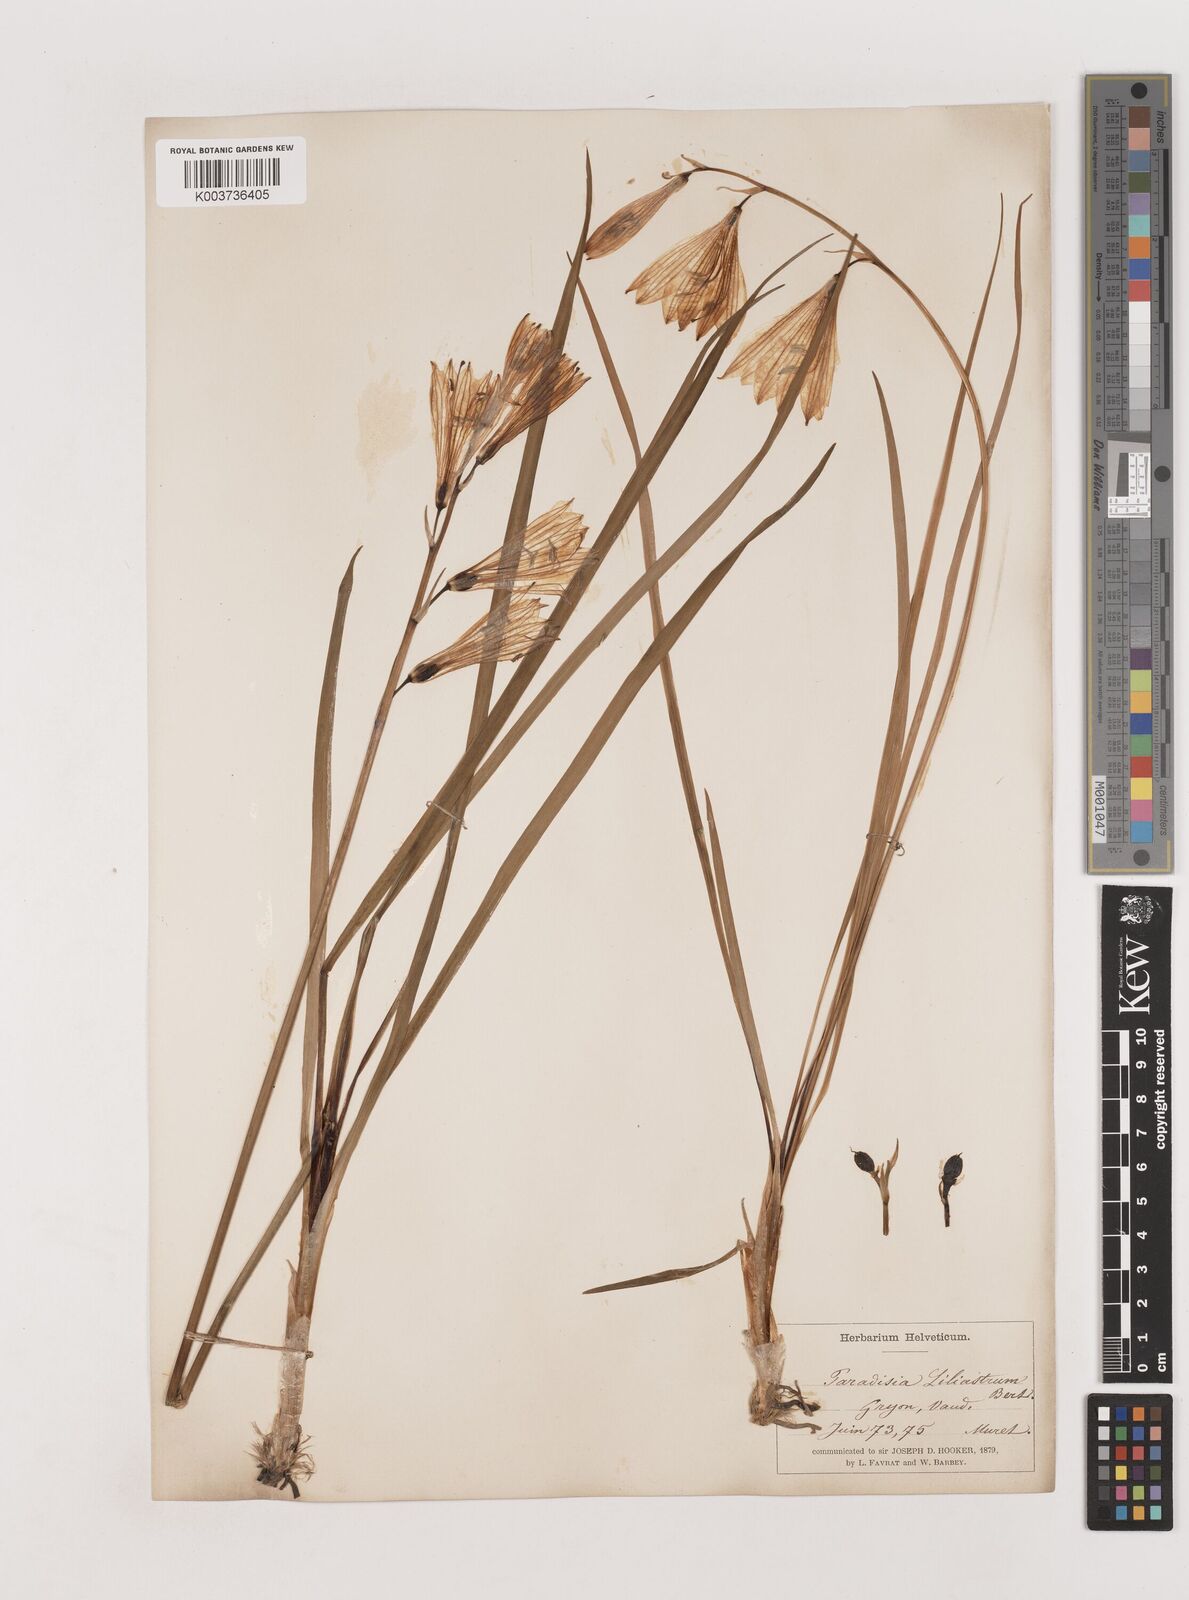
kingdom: Plantae
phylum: Tracheophyta
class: Liliopsida
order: Asparagales
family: Asparagaceae
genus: Paradisea
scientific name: Paradisea liliastrum
